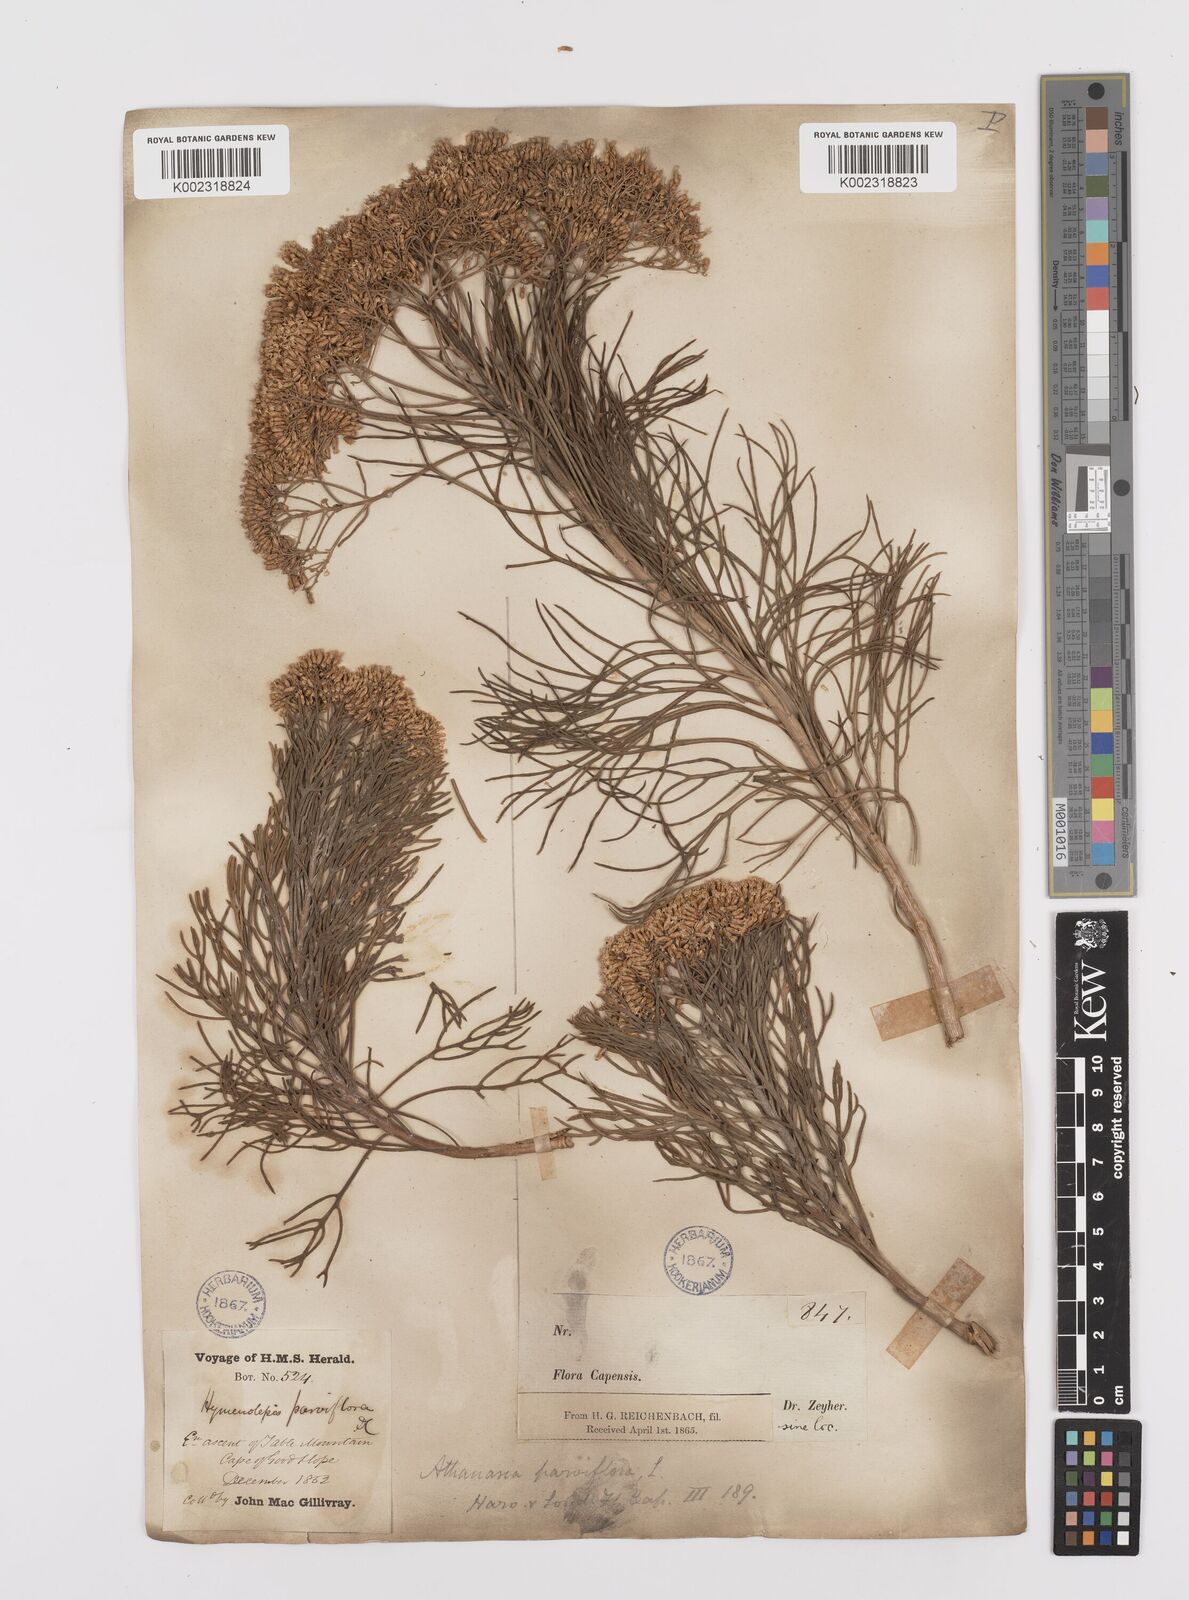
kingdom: Plantae
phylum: Tracheophyta
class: Magnoliopsida
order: Asterales
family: Asteraceae
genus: Hymenolepis
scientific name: Hymenolepis crithmifolia
